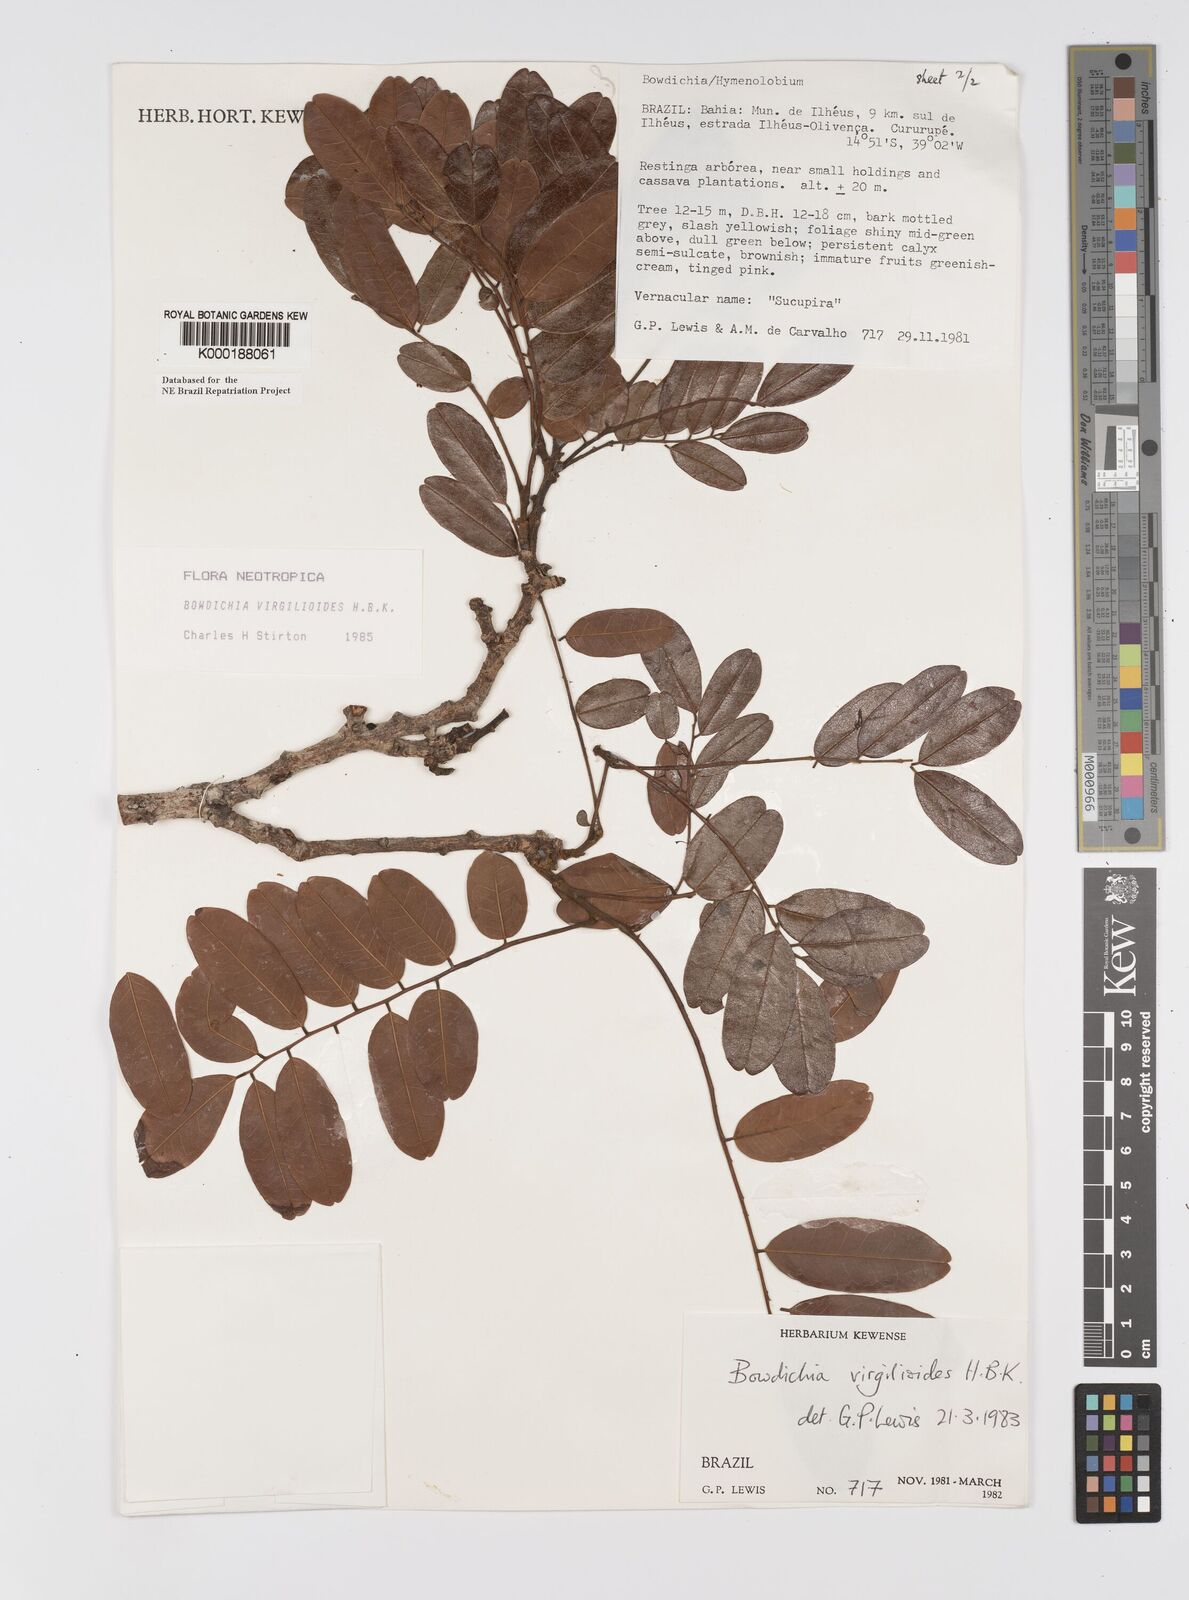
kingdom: Plantae
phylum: Tracheophyta
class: Magnoliopsida
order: Fabales
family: Fabaceae
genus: Bowdichia
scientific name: Bowdichia virgilioides
